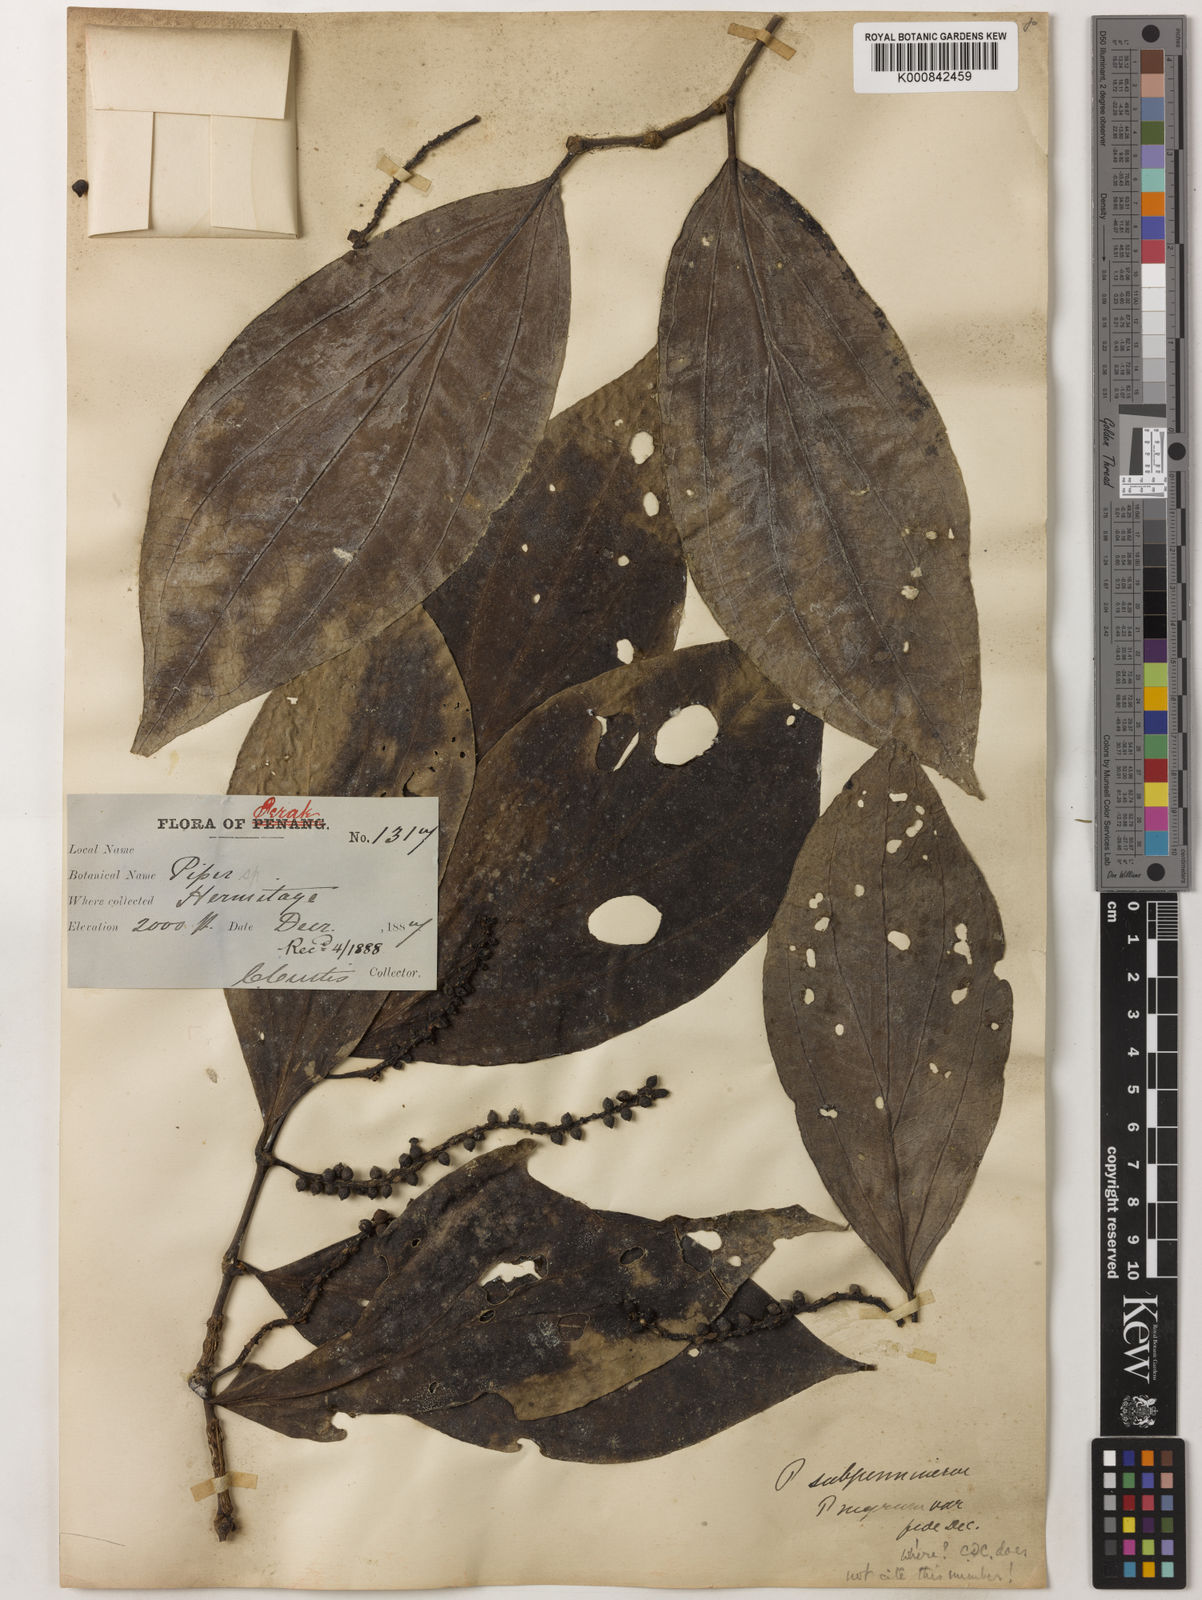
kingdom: Plantae
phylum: Tracheophyta
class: Magnoliopsida
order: Piperales
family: Piperaceae
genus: Piper
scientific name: Piper
